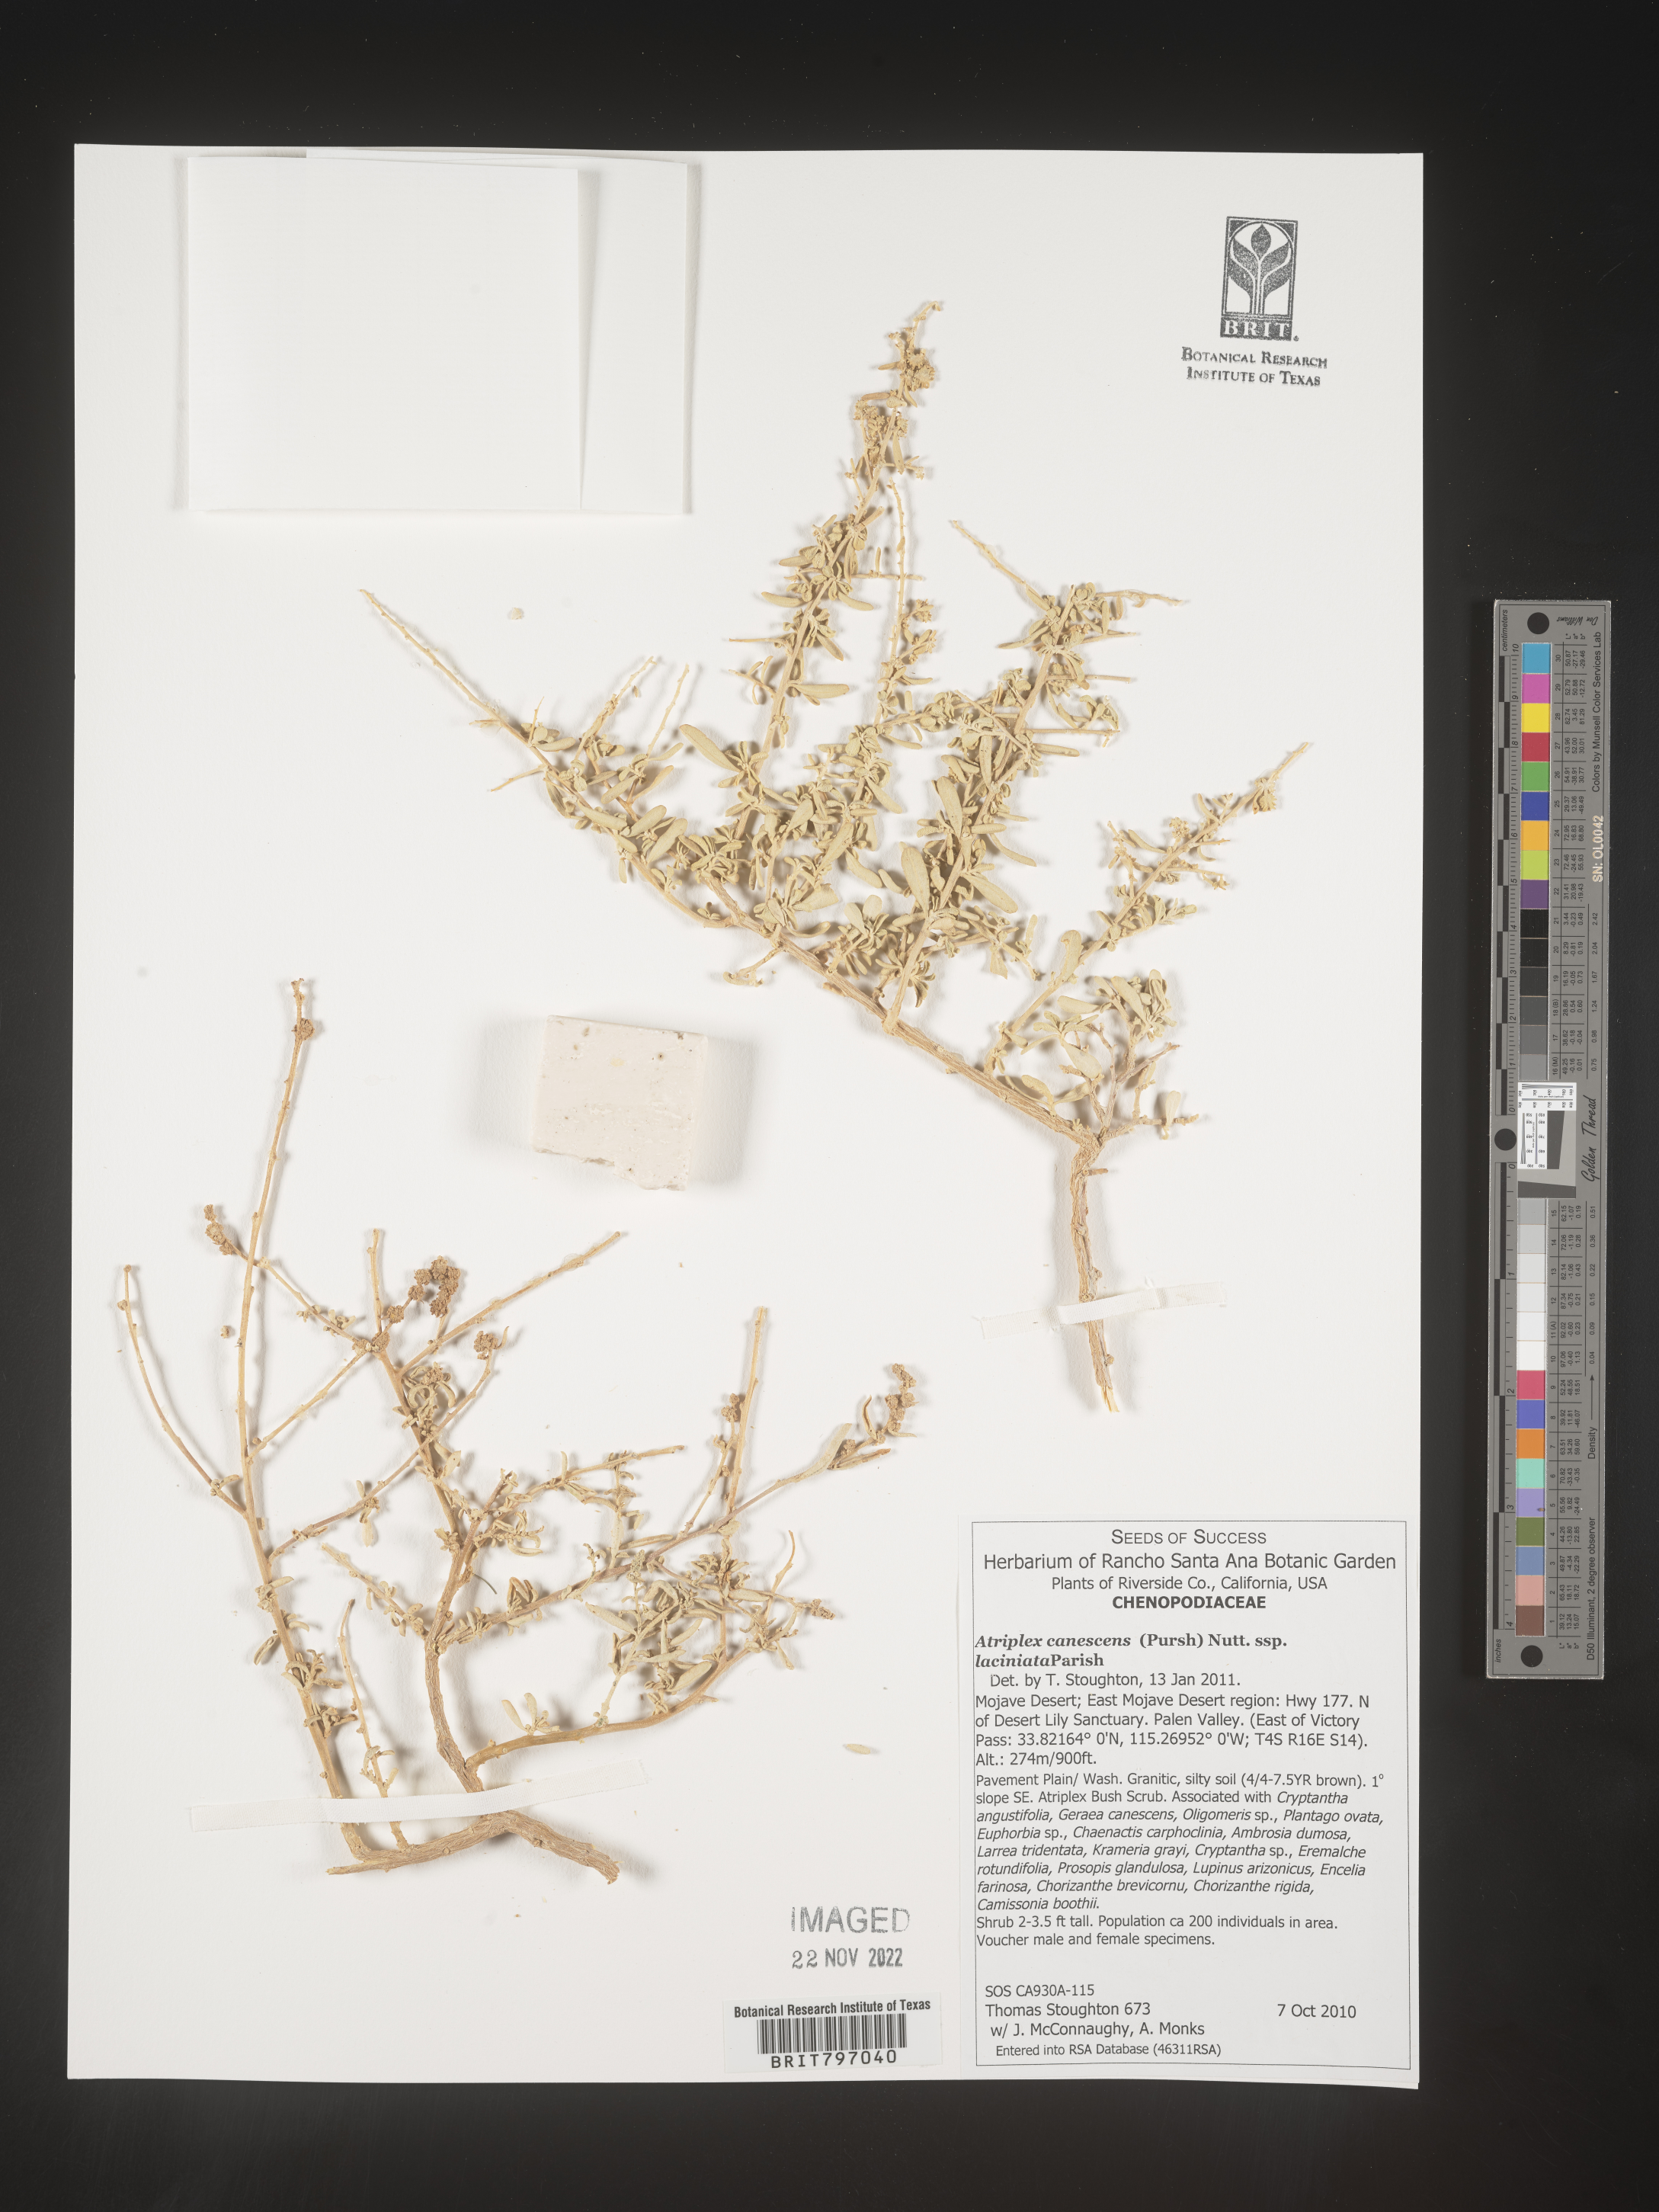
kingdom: Plantae
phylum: Tracheophyta
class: Magnoliopsida
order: Caryophyllales
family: Amaranthaceae
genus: Atriplex
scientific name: Atriplex canescens
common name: Four-wing saltbush
